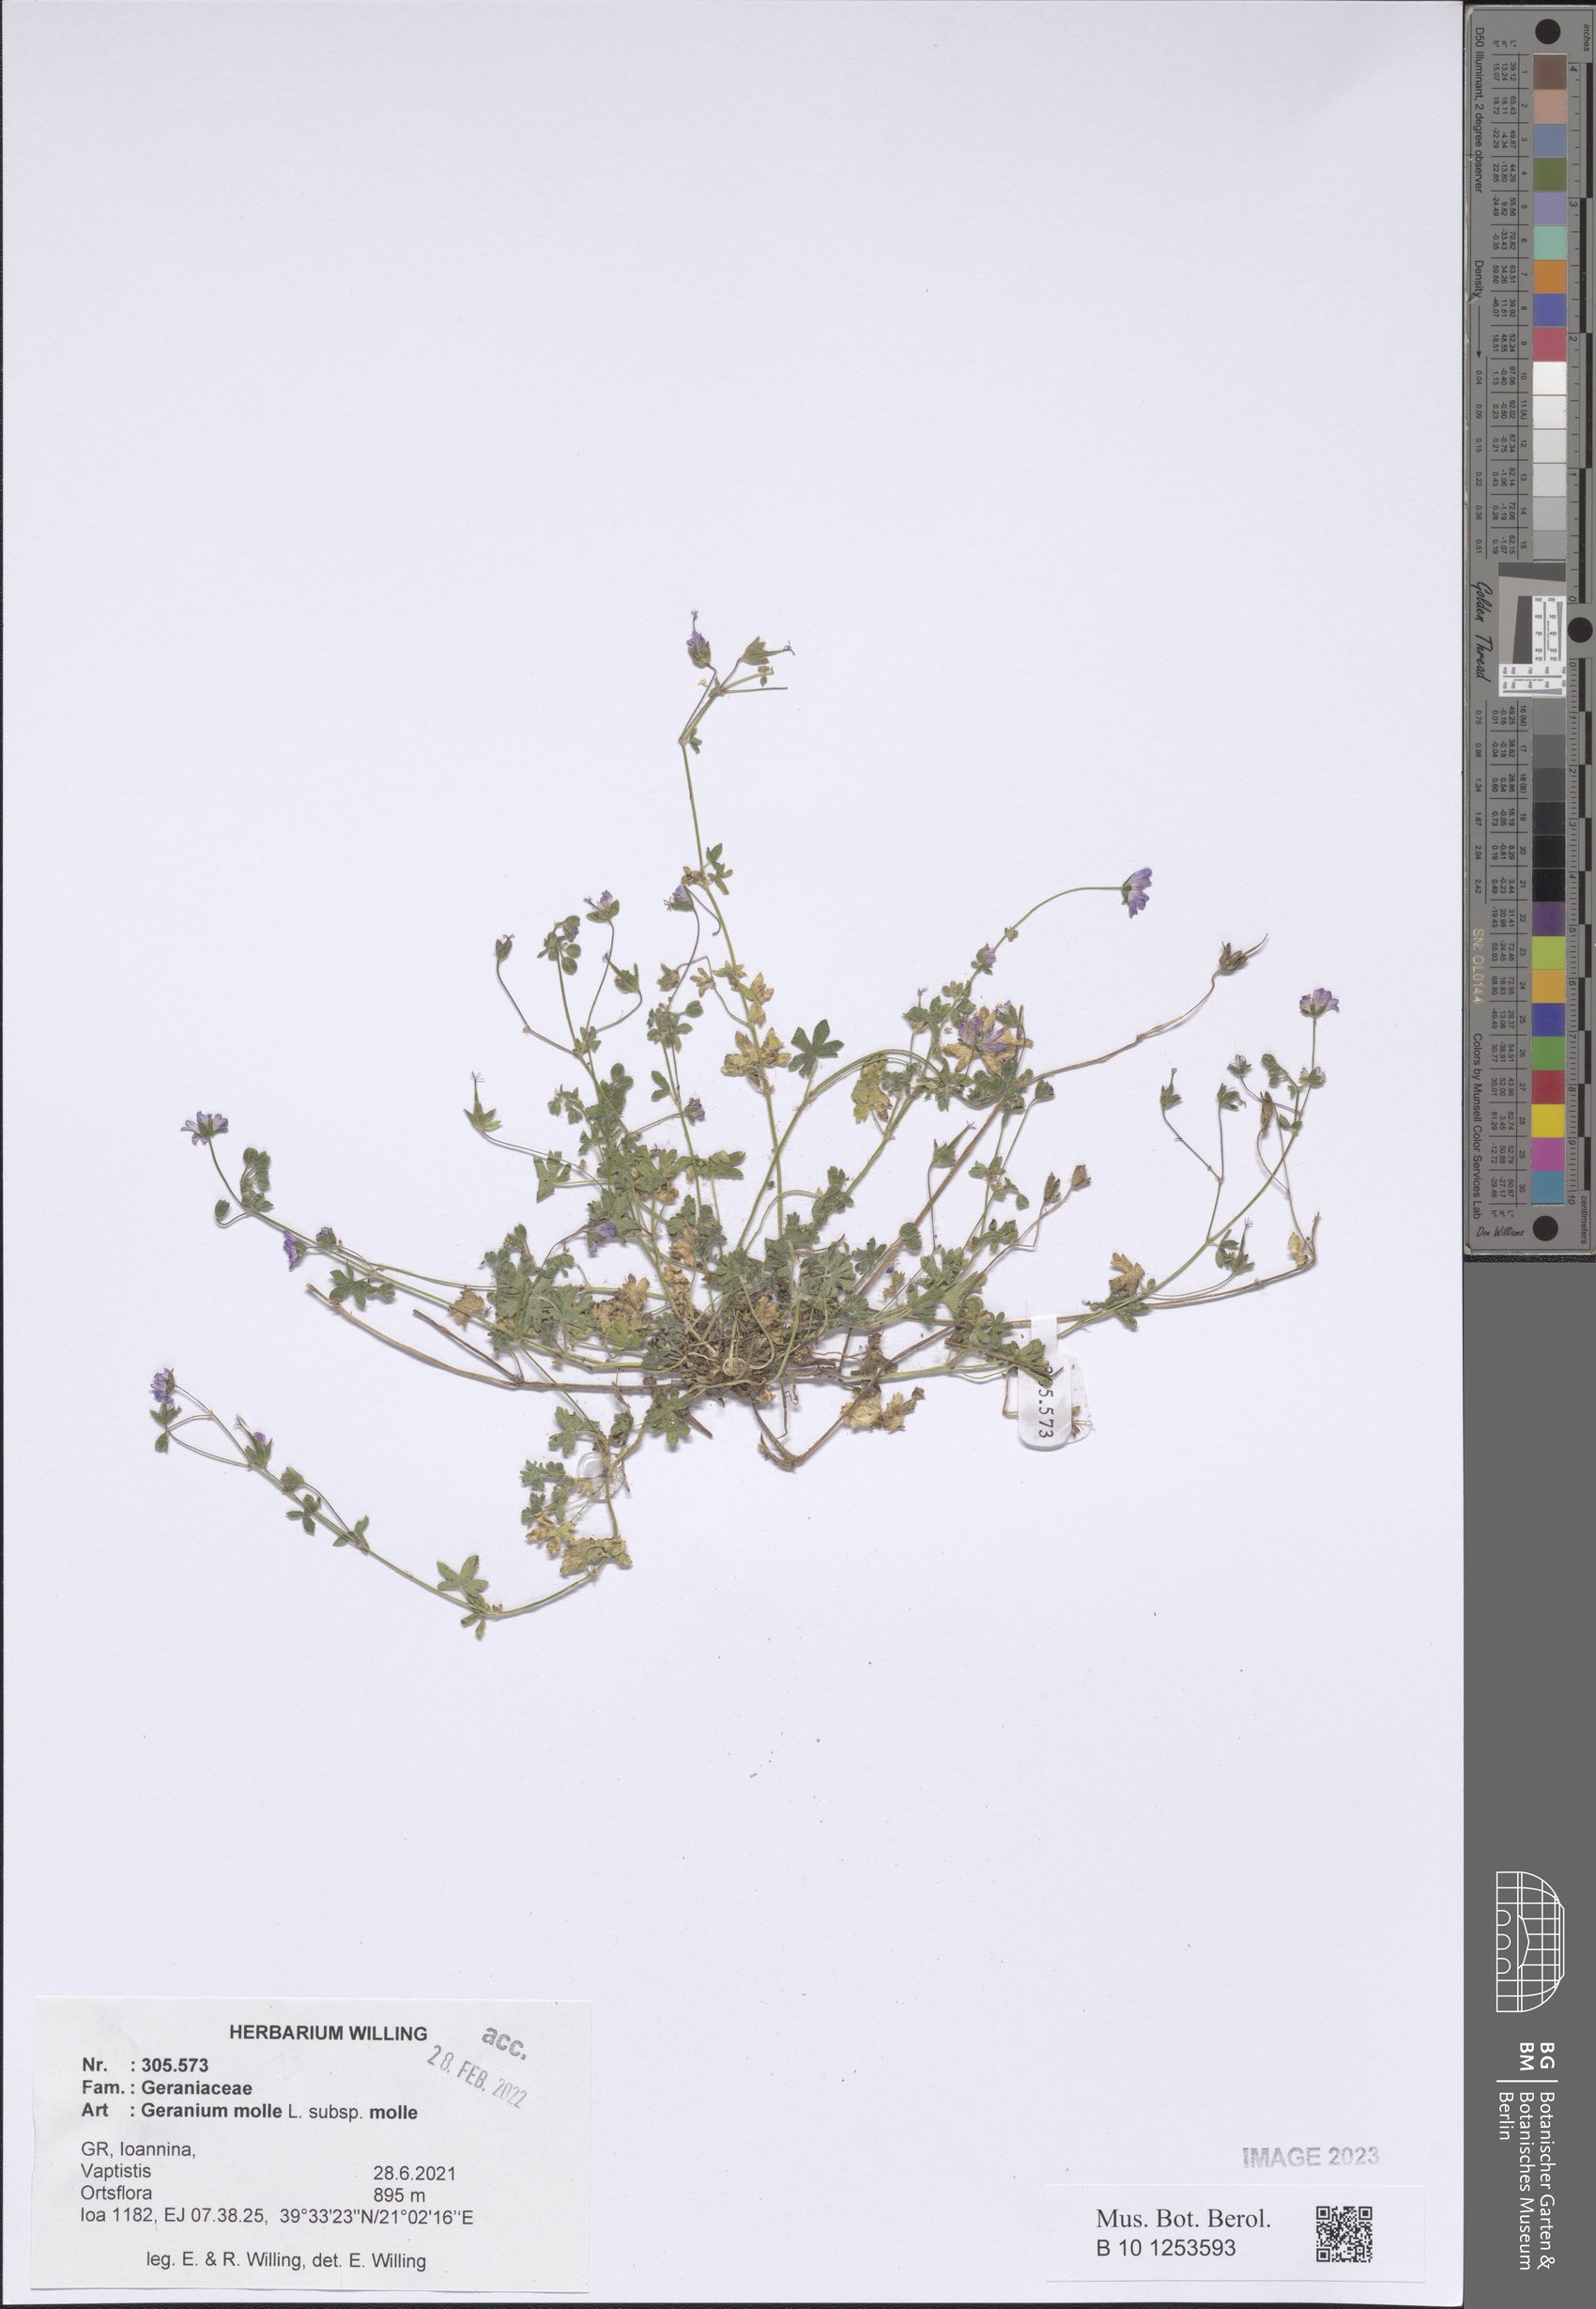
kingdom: Plantae
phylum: Tracheophyta
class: Magnoliopsida
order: Geraniales
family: Geraniaceae
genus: Geranium
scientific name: Geranium molle
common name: Dove's-foot crane's-bill
